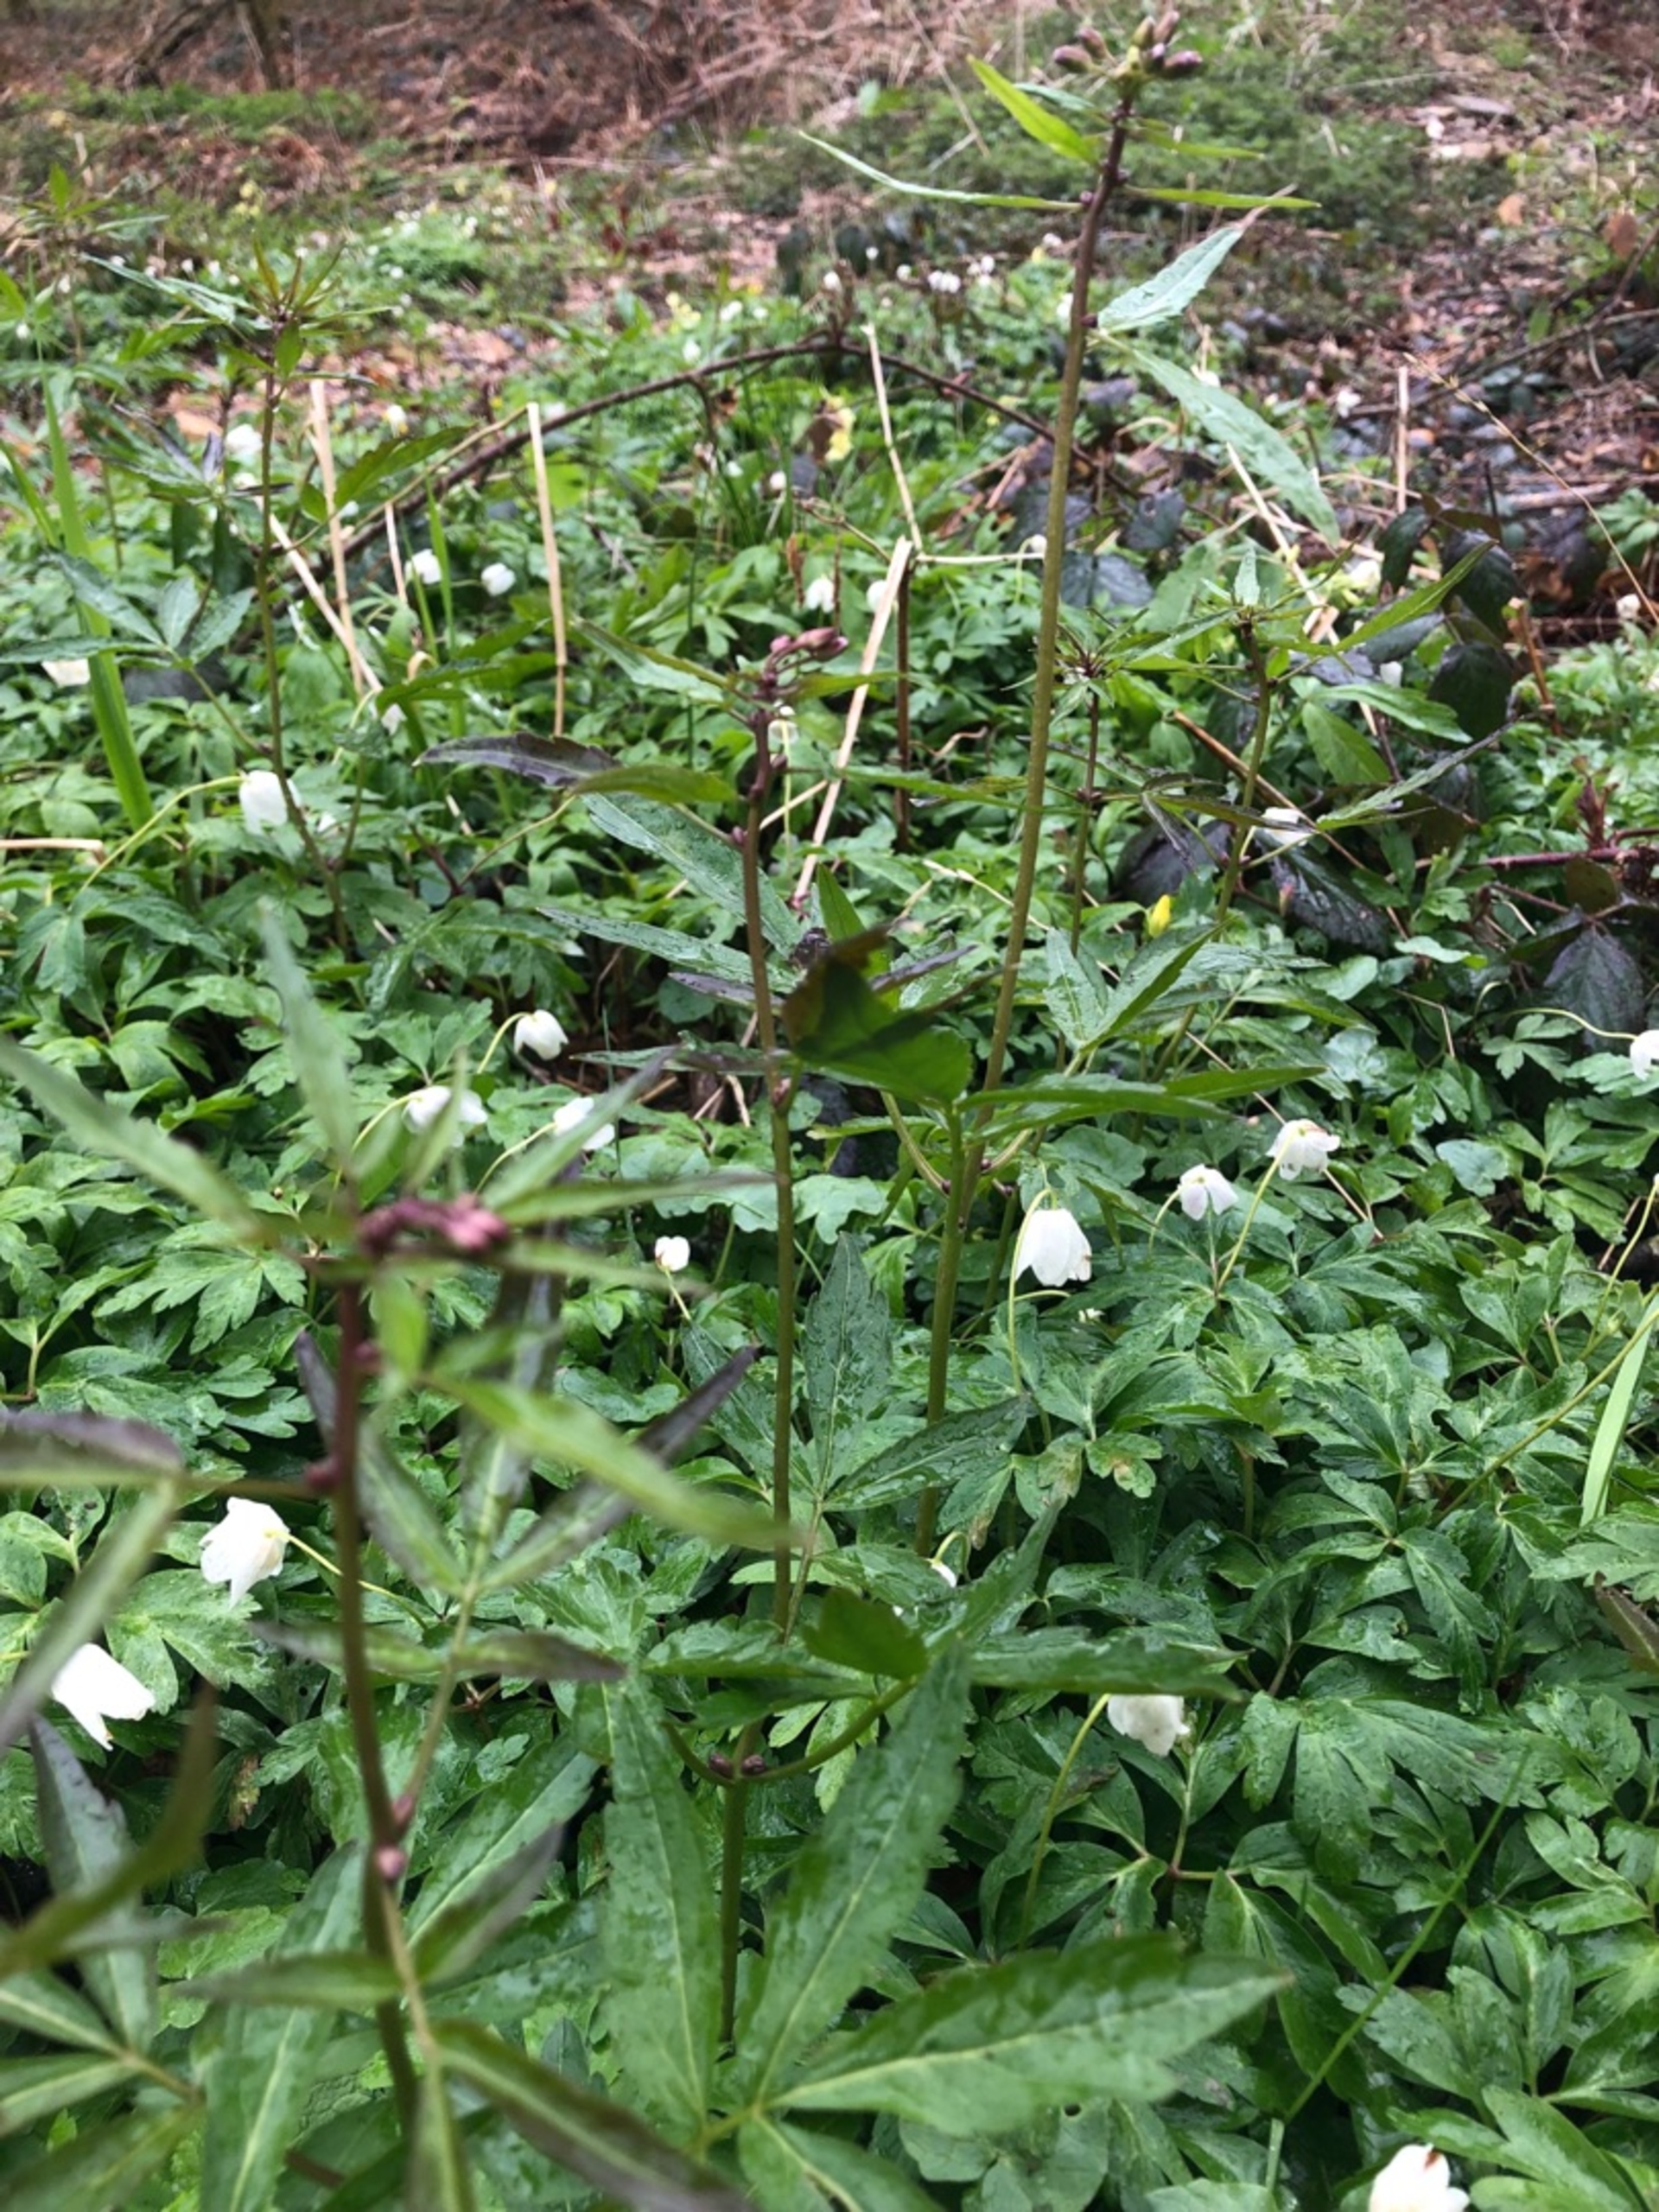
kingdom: Plantae
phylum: Tracheophyta
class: Magnoliopsida
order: Brassicales
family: Brassicaceae
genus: Cardamine
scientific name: Cardamine bulbifera
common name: Tandrod
